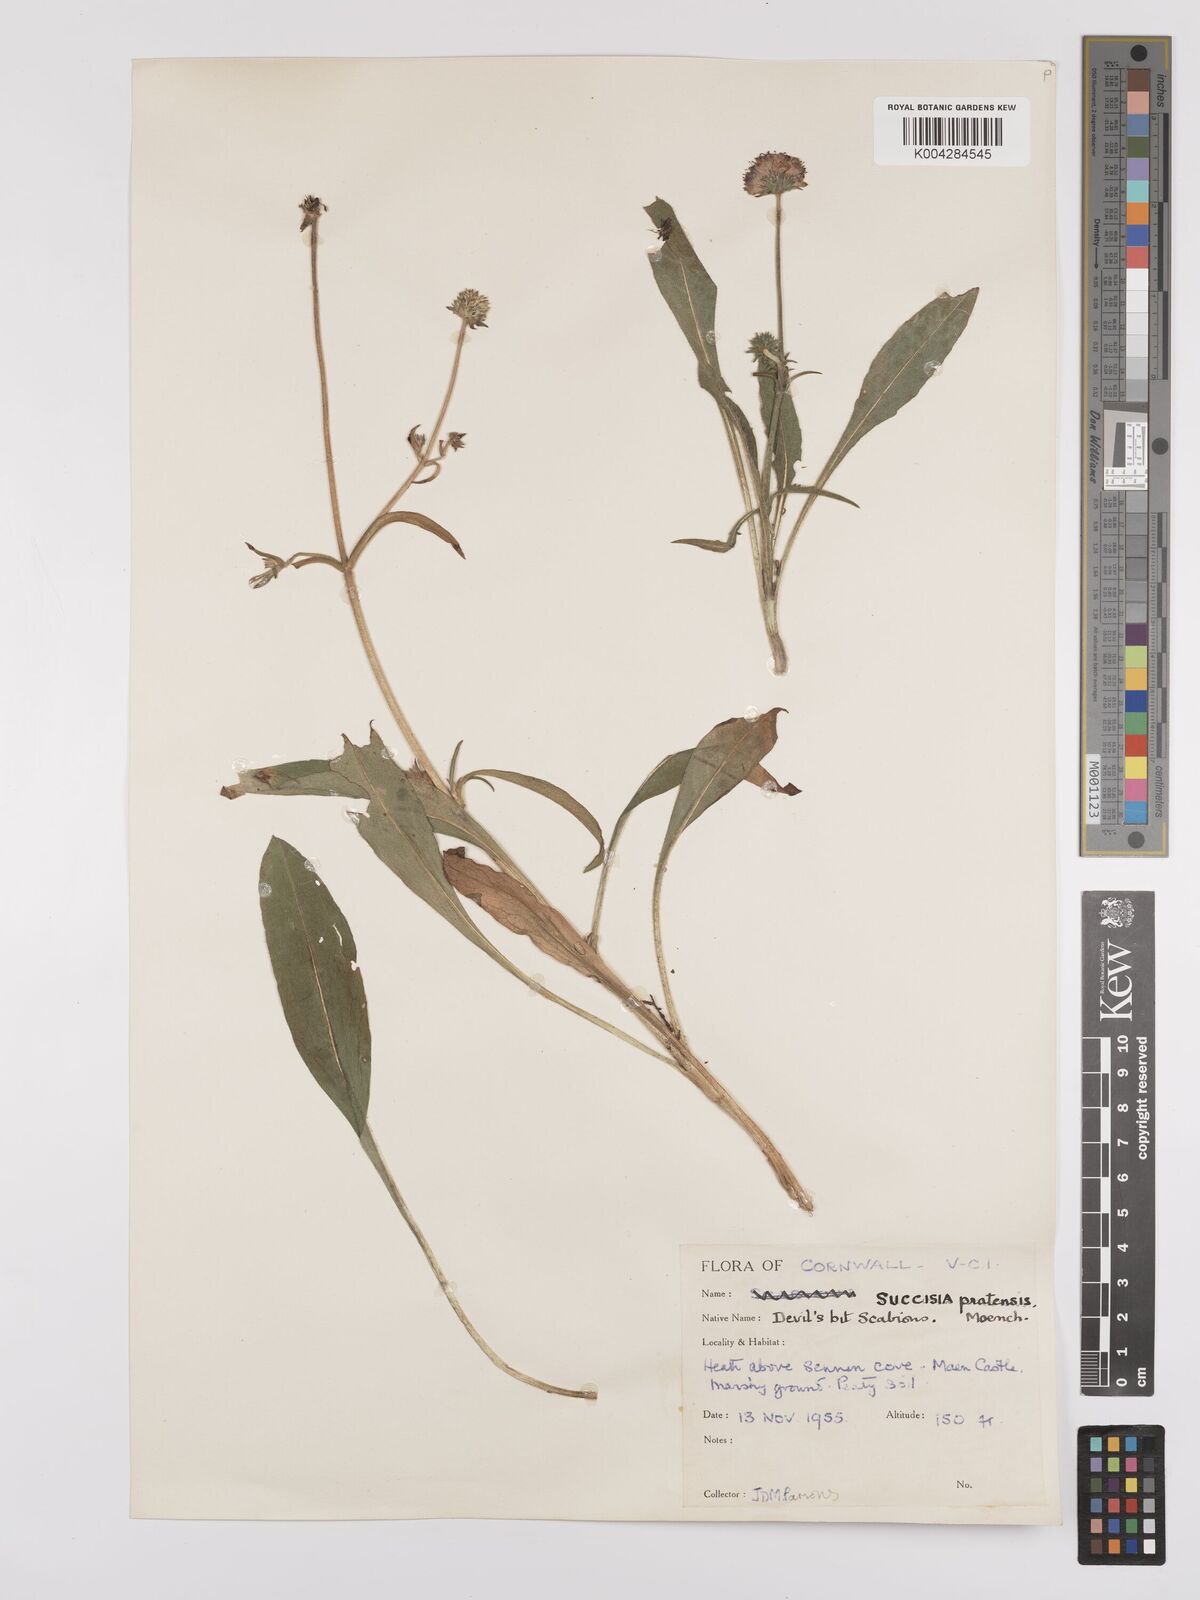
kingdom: Plantae
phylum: Tracheophyta
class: Magnoliopsida
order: Dipsacales
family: Caprifoliaceae
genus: Succisa
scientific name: Succisa pratensis
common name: Devil's-bit
